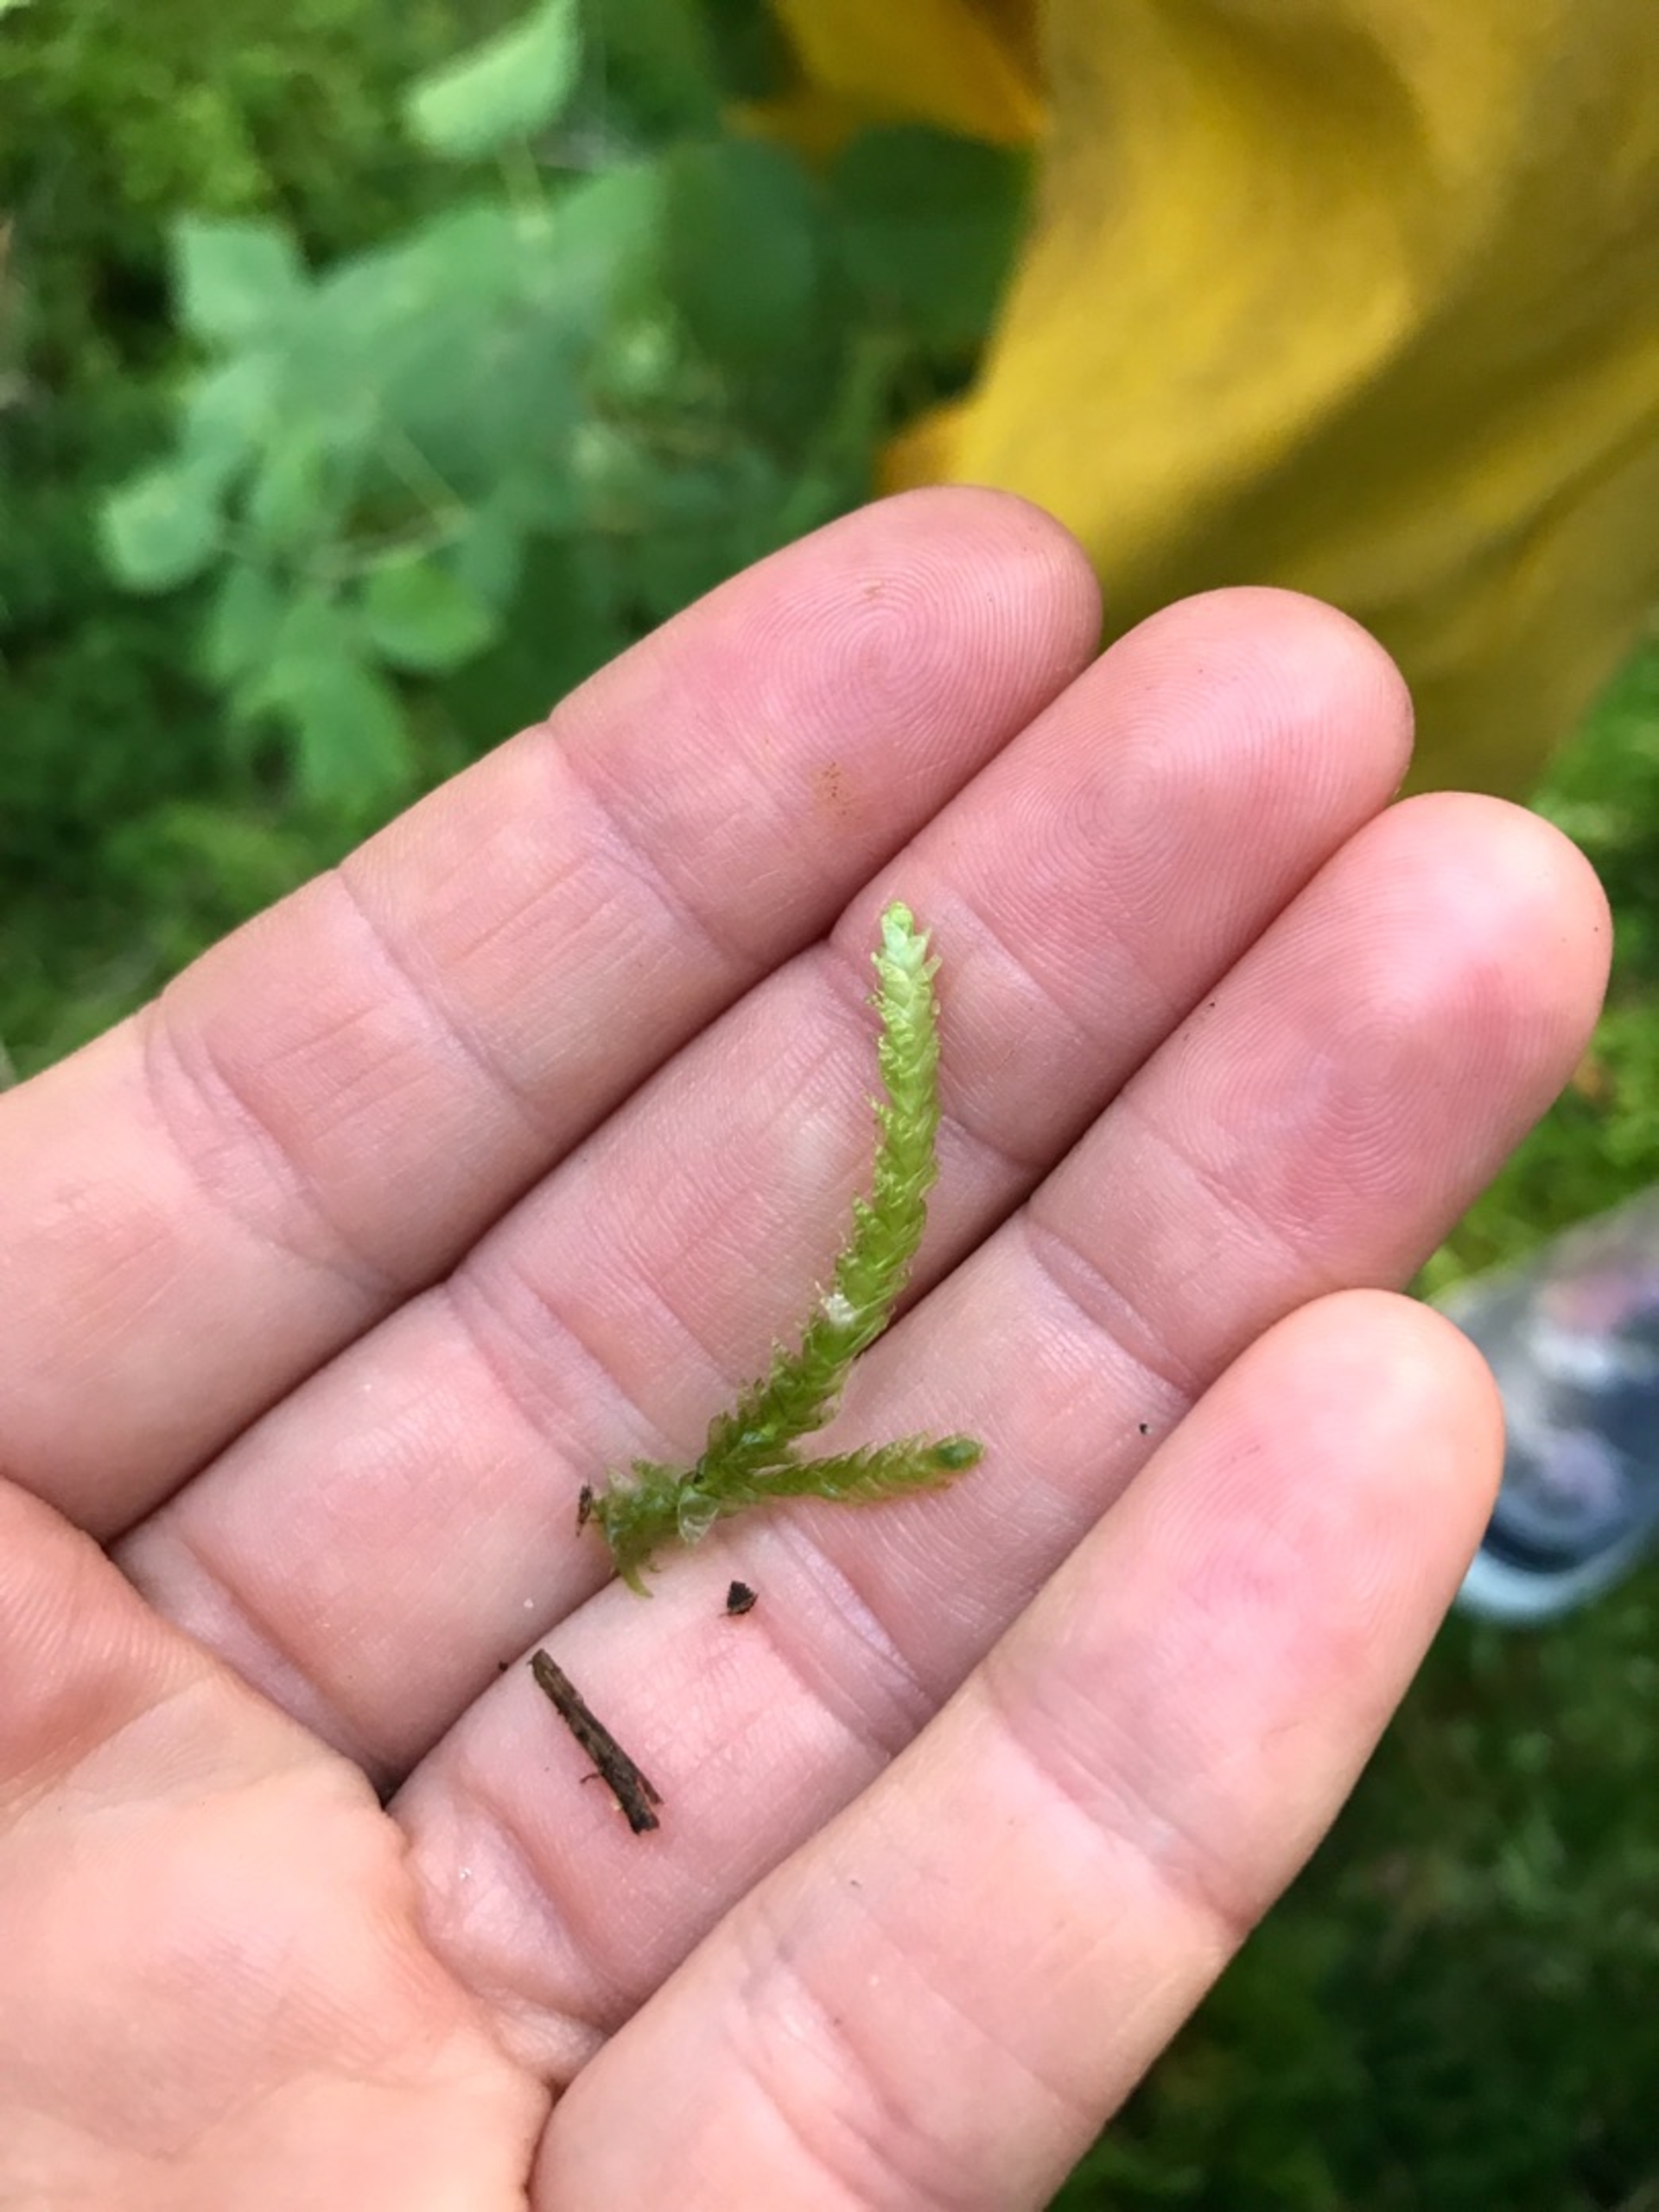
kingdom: Plantae
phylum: Bryophyta
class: Bryopsida
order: Hypnales
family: Plagiotheciaceae
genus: Plagiothecium
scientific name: Plagiothecium undulatum
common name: Bølget tæppemos
